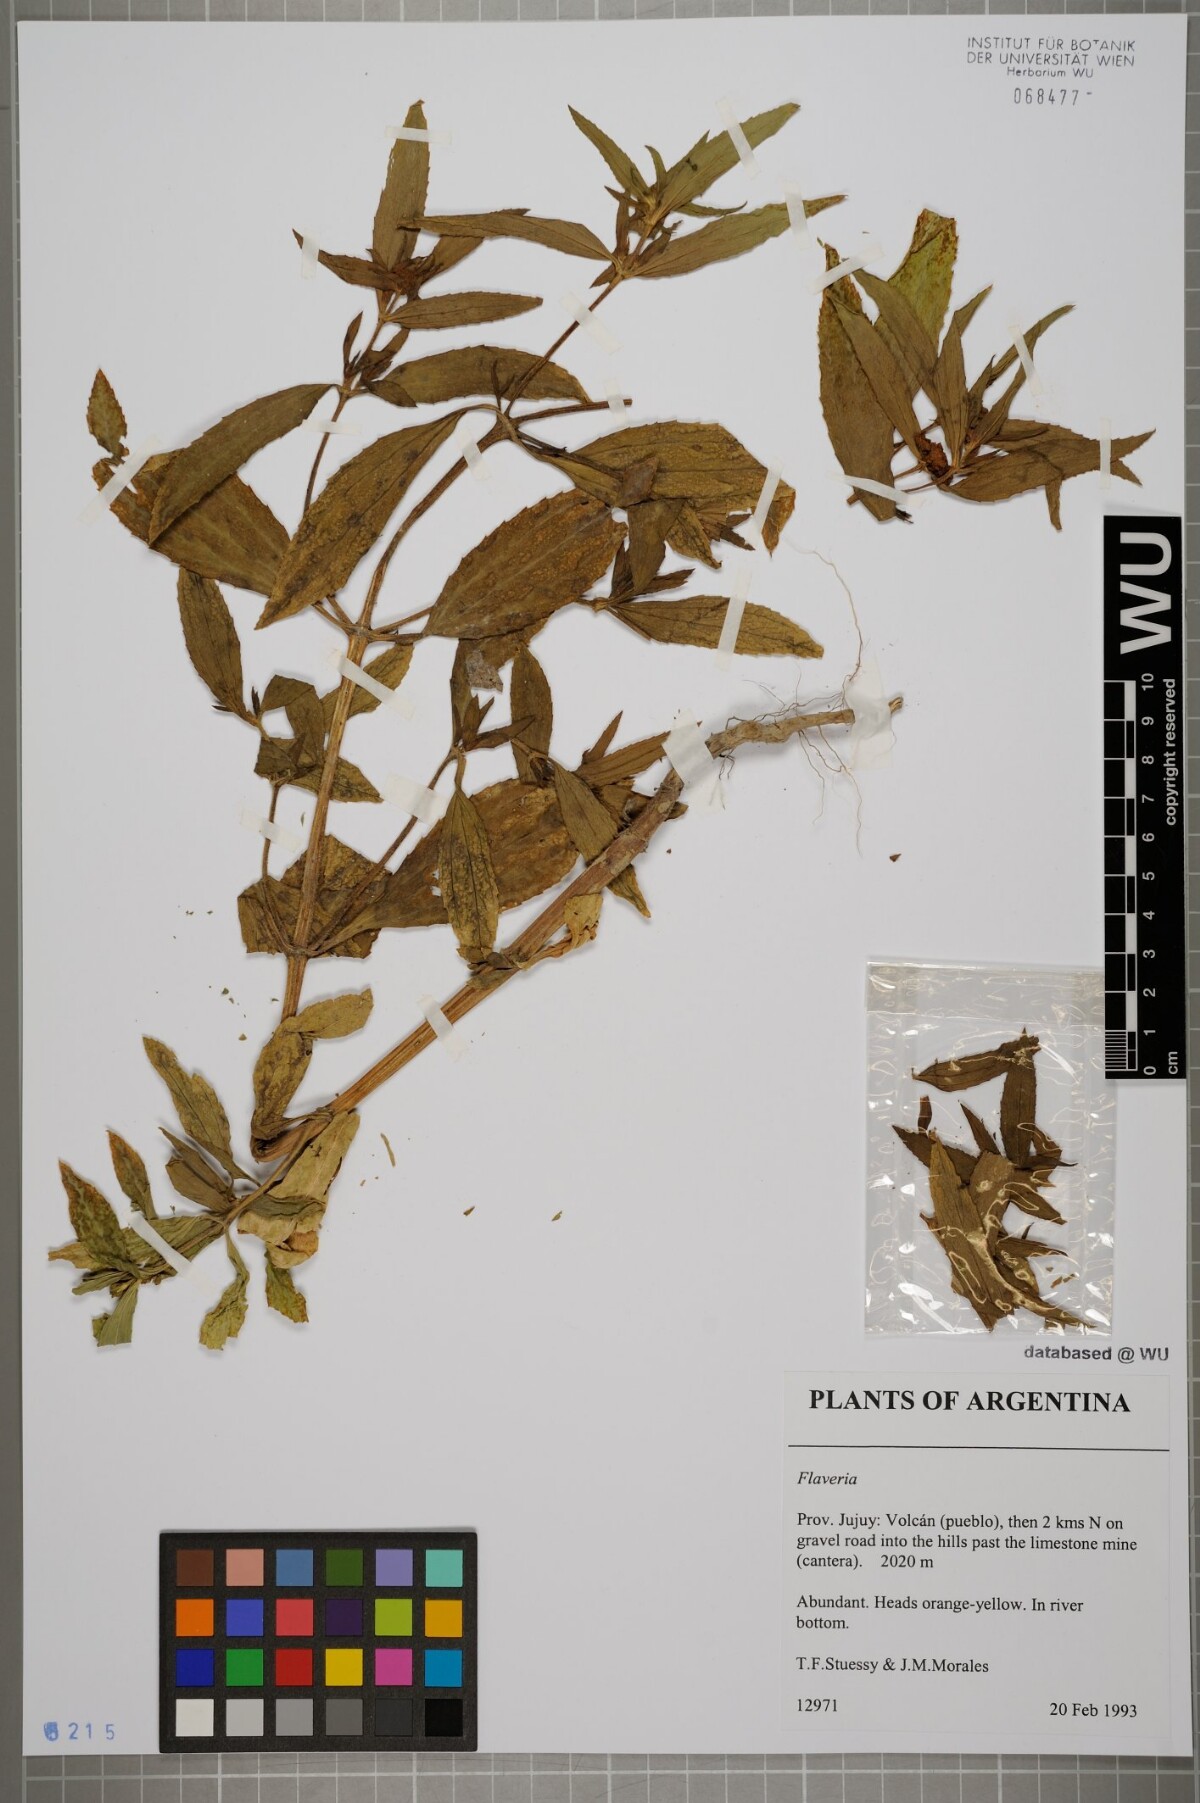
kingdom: Plantae
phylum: Tracheophyta
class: Magnoliopsida
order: Asterales
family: Asteraceae
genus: Flaveria
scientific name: Flaveria
